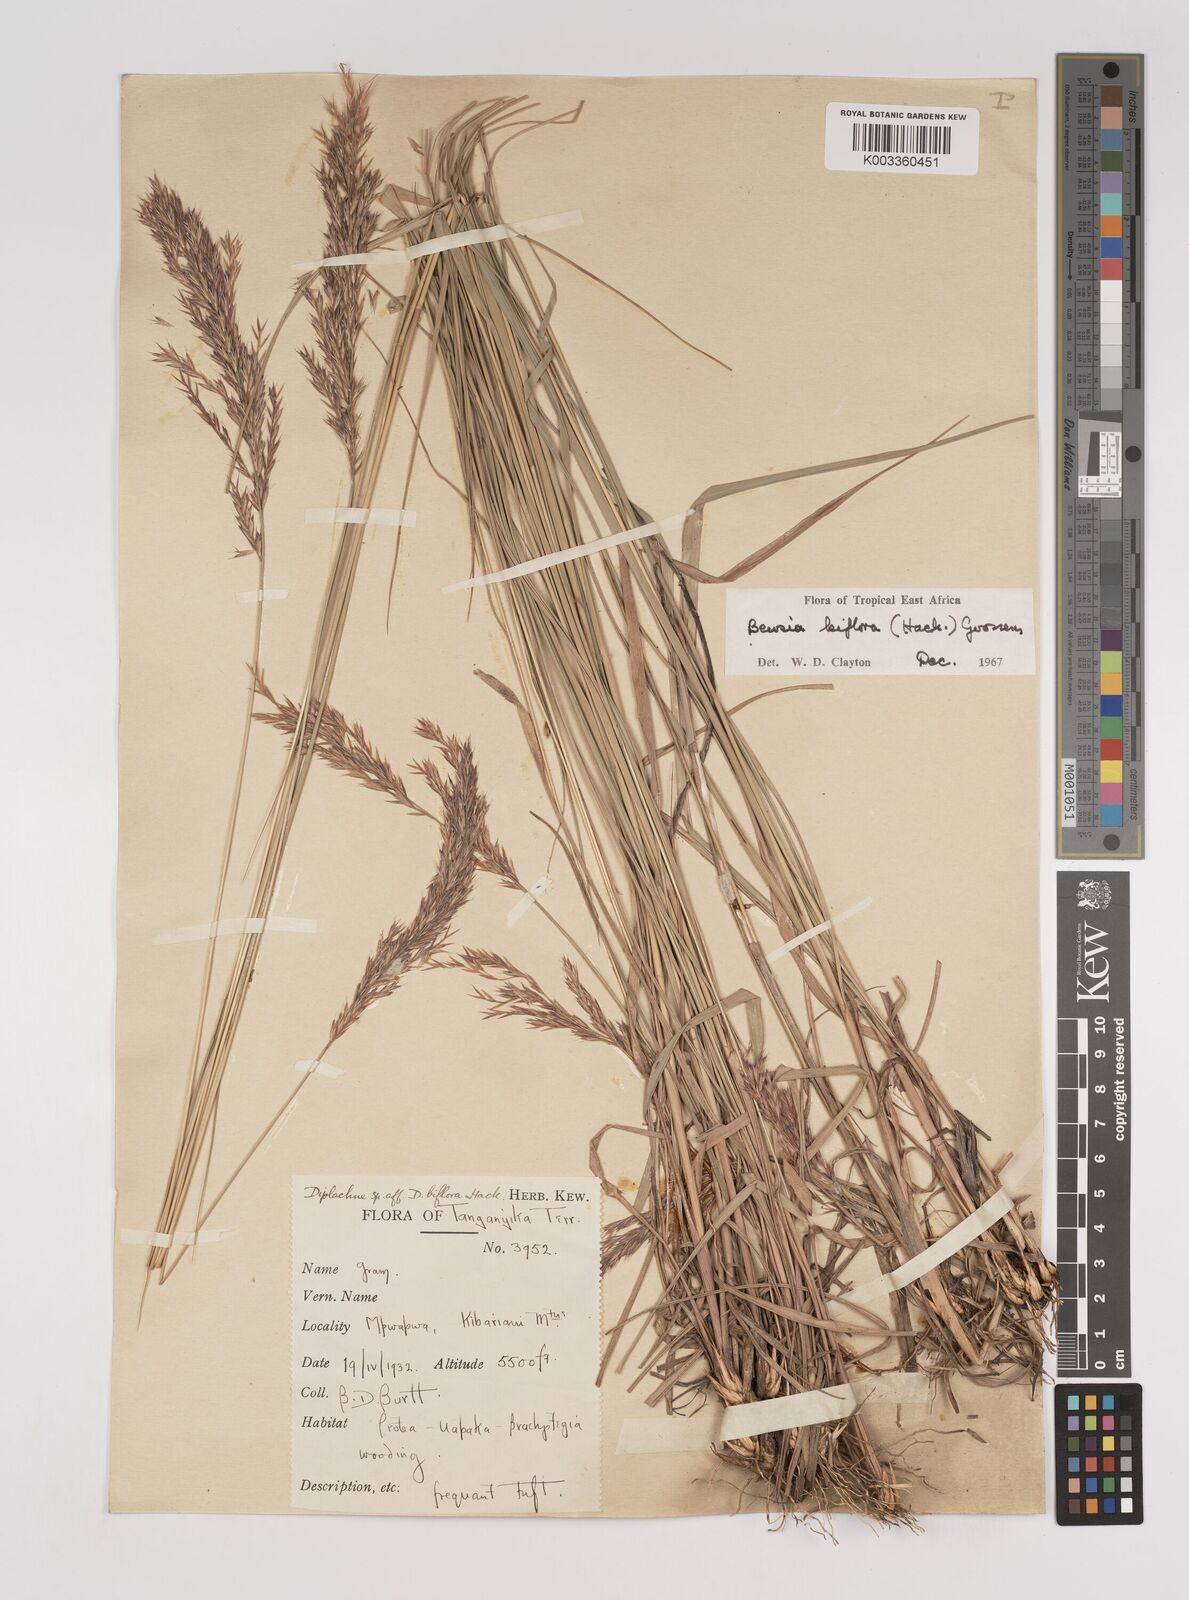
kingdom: Plantae
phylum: Tracheophyta
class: Liliopsida
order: Poales
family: Poaceae
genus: Bewsia
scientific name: Bewsia biflora
